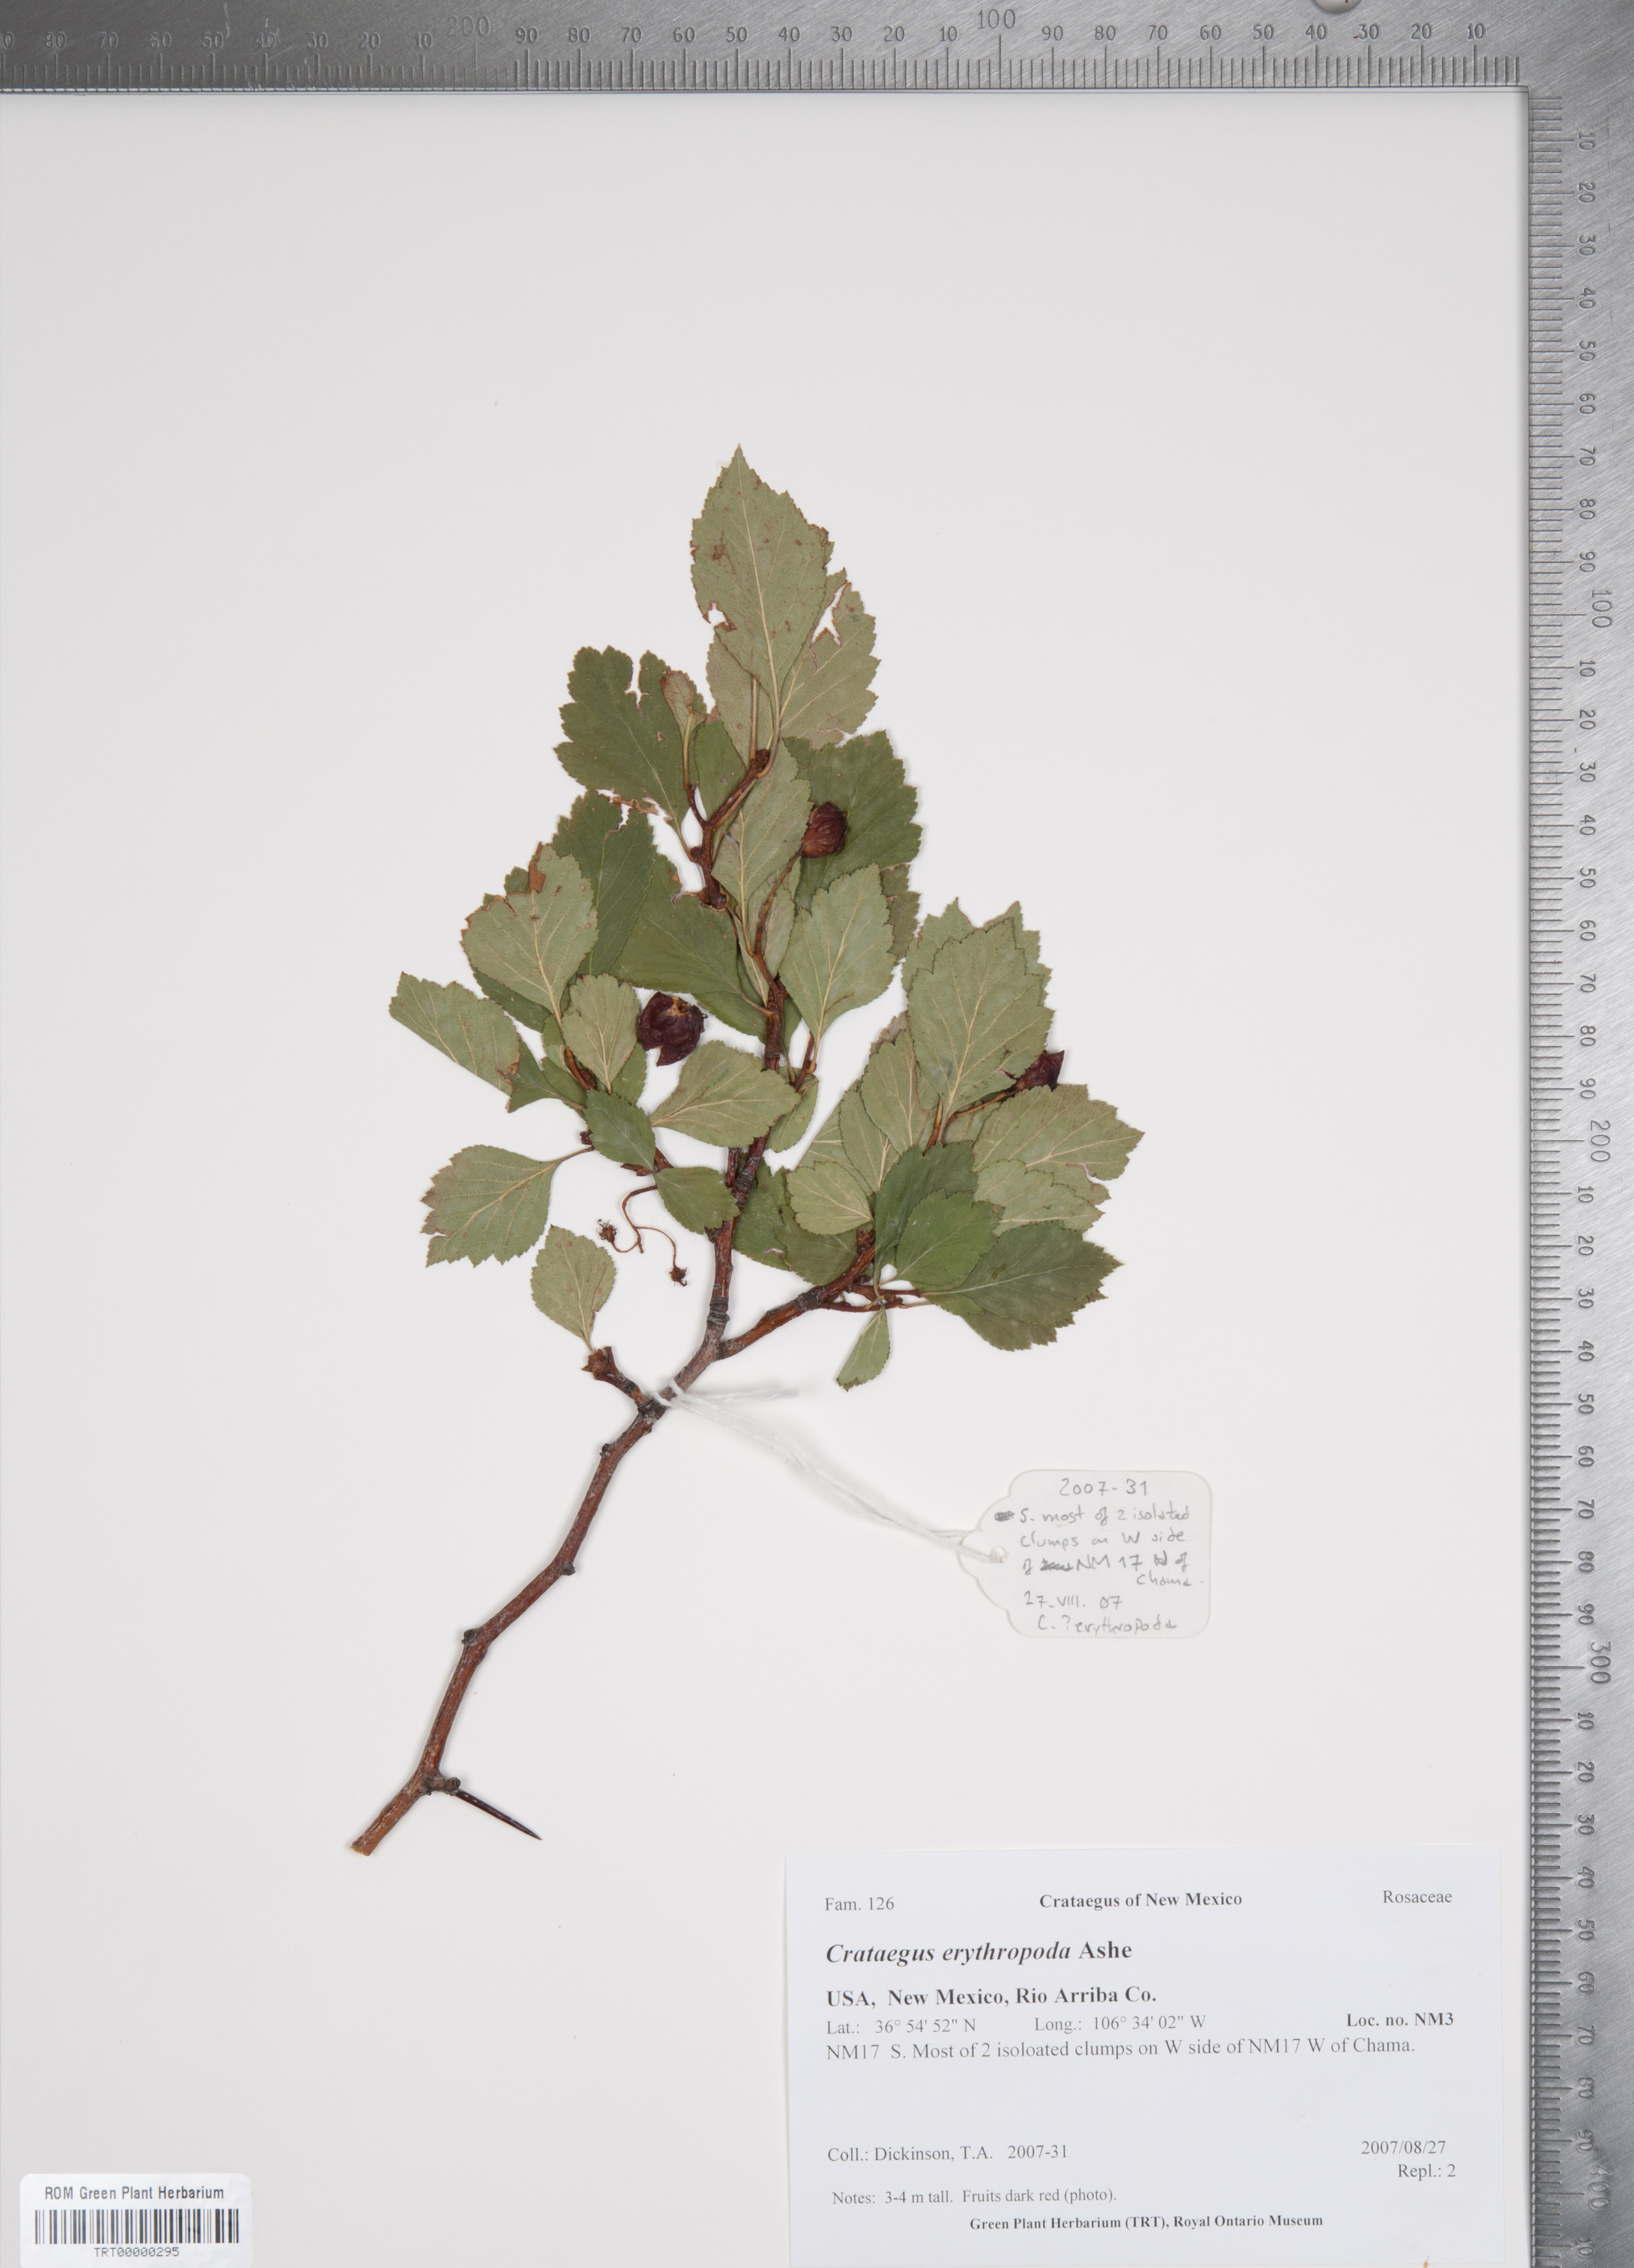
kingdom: Plantae
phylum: Tracheophyta
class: Magnoliopsida
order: Rosales
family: Rosaceae
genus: Crataegus
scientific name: Crataegus erythropoda
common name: Cerro hawthorn
